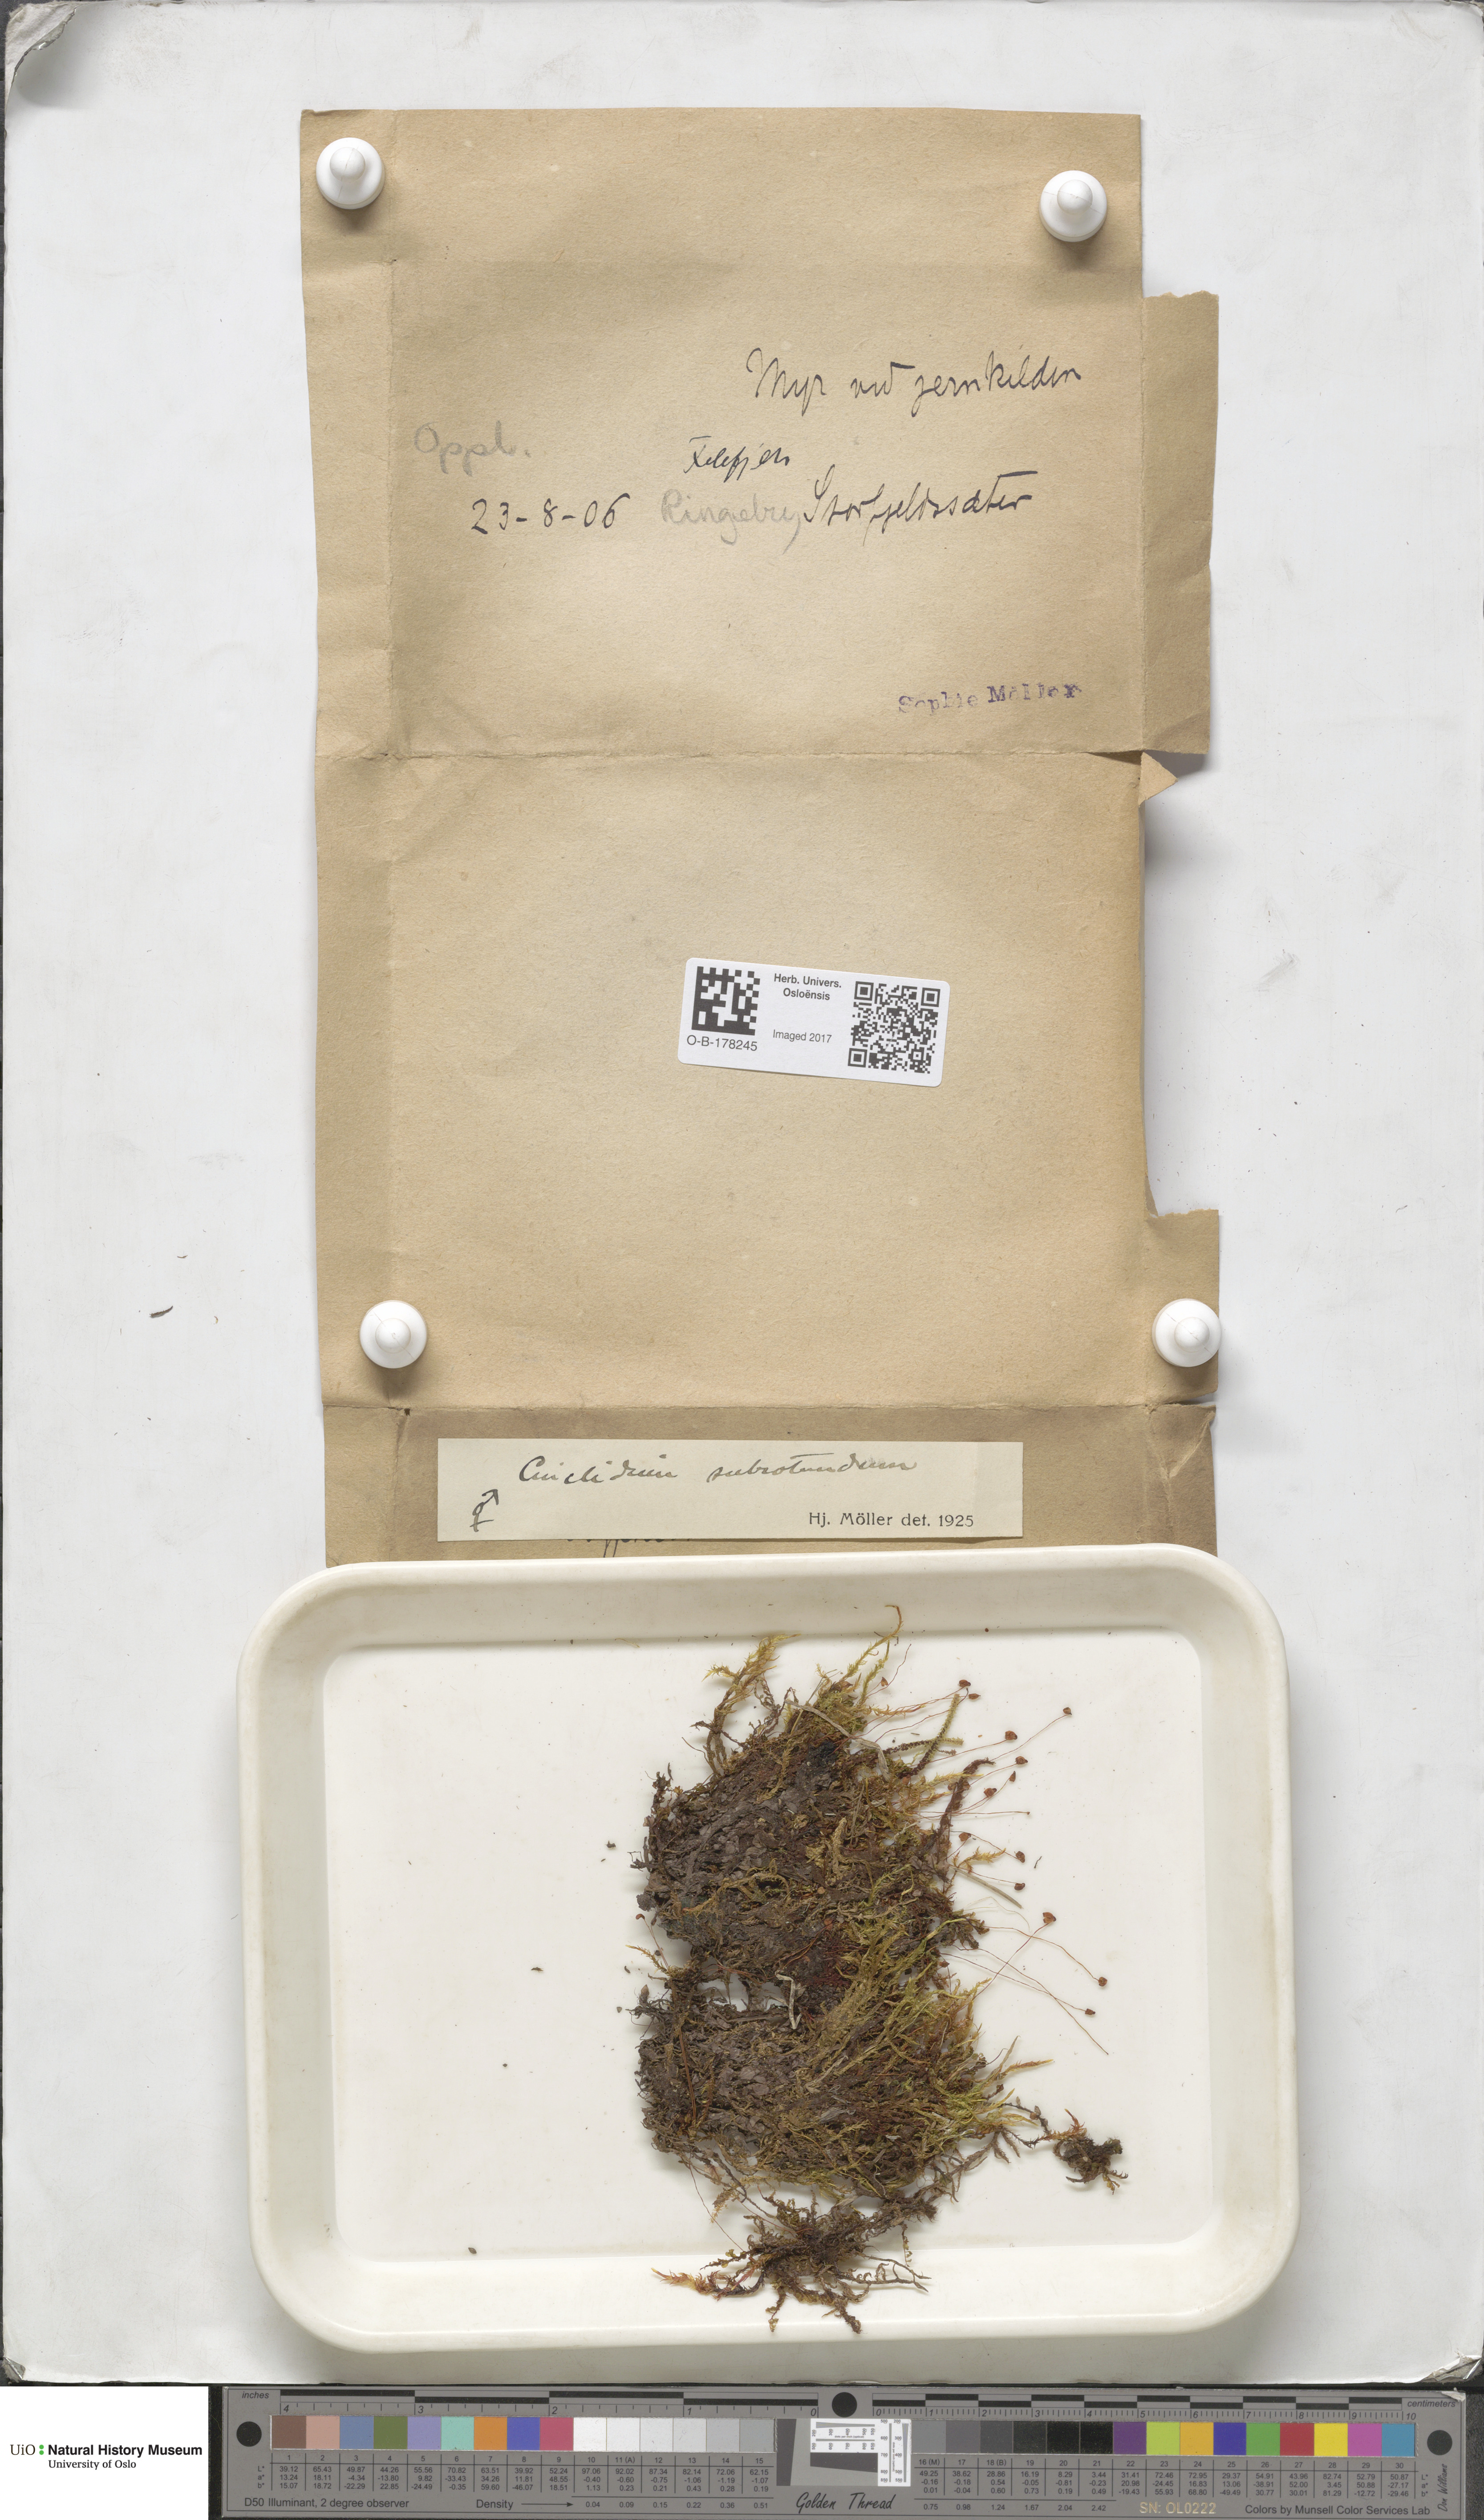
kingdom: Plantae
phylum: Bryophyta
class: Bryopsida
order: Bryales
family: Mniaceae
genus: Cinclidium
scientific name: Cinclidium subrotundum
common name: Ovate cupola moss
